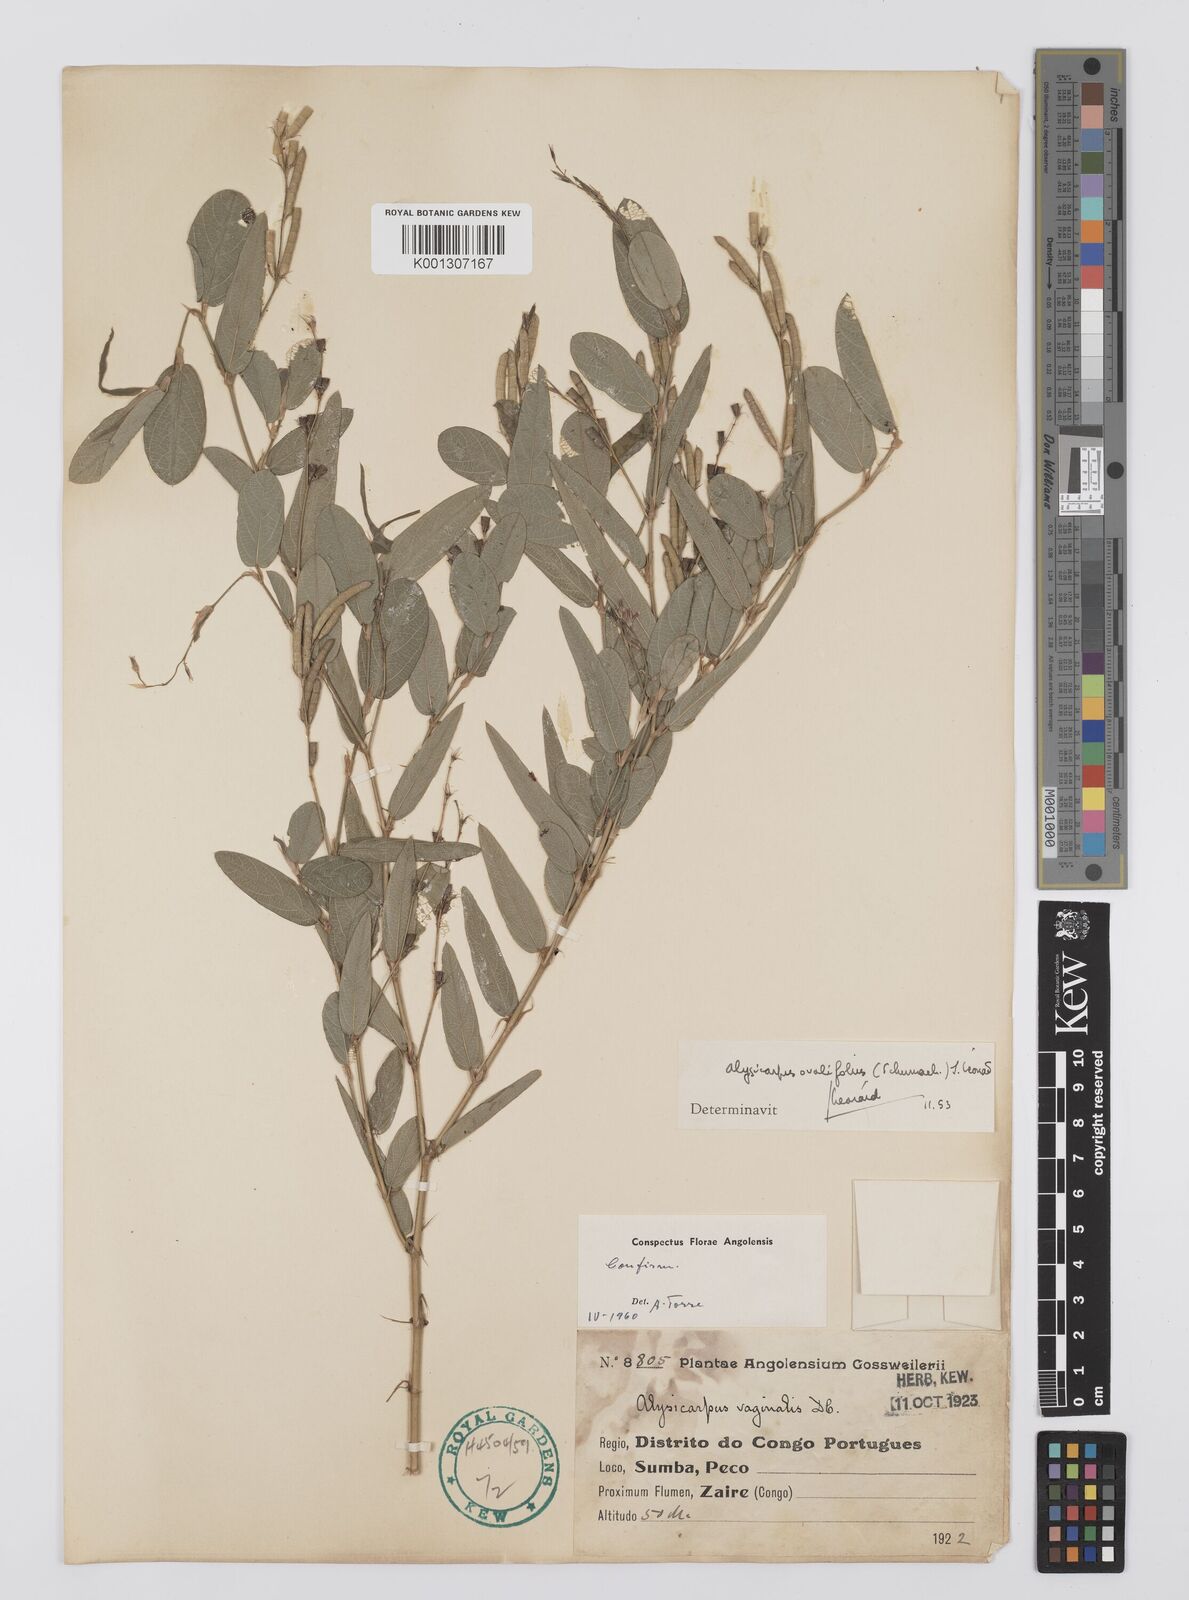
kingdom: Plantae
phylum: Tracheophyta
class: Magnoliopsida
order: Fabales
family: Fabaceae
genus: Alysicarpus
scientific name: Alysicarpus vaginalis
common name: White moneywort
